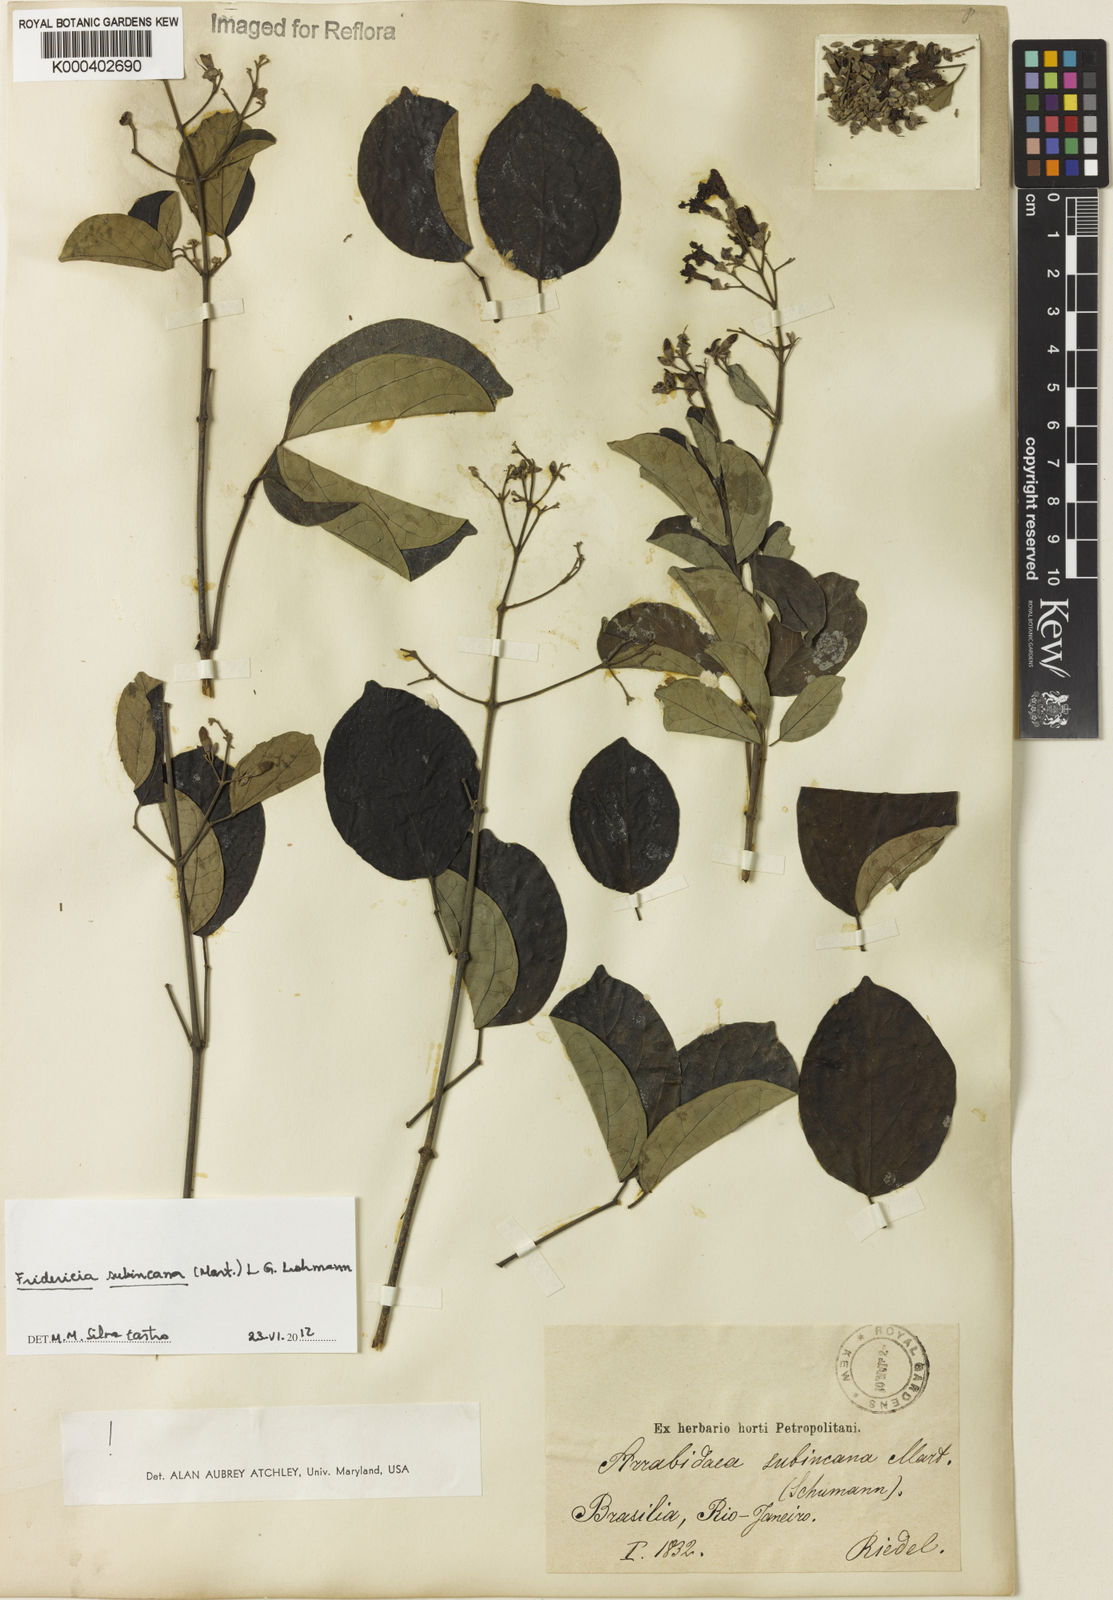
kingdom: Plantae
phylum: Tracheophyta
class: Magnoliopsida
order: Lamiales
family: Bignoniaceae
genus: Fridericia
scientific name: Fridericia subincana
